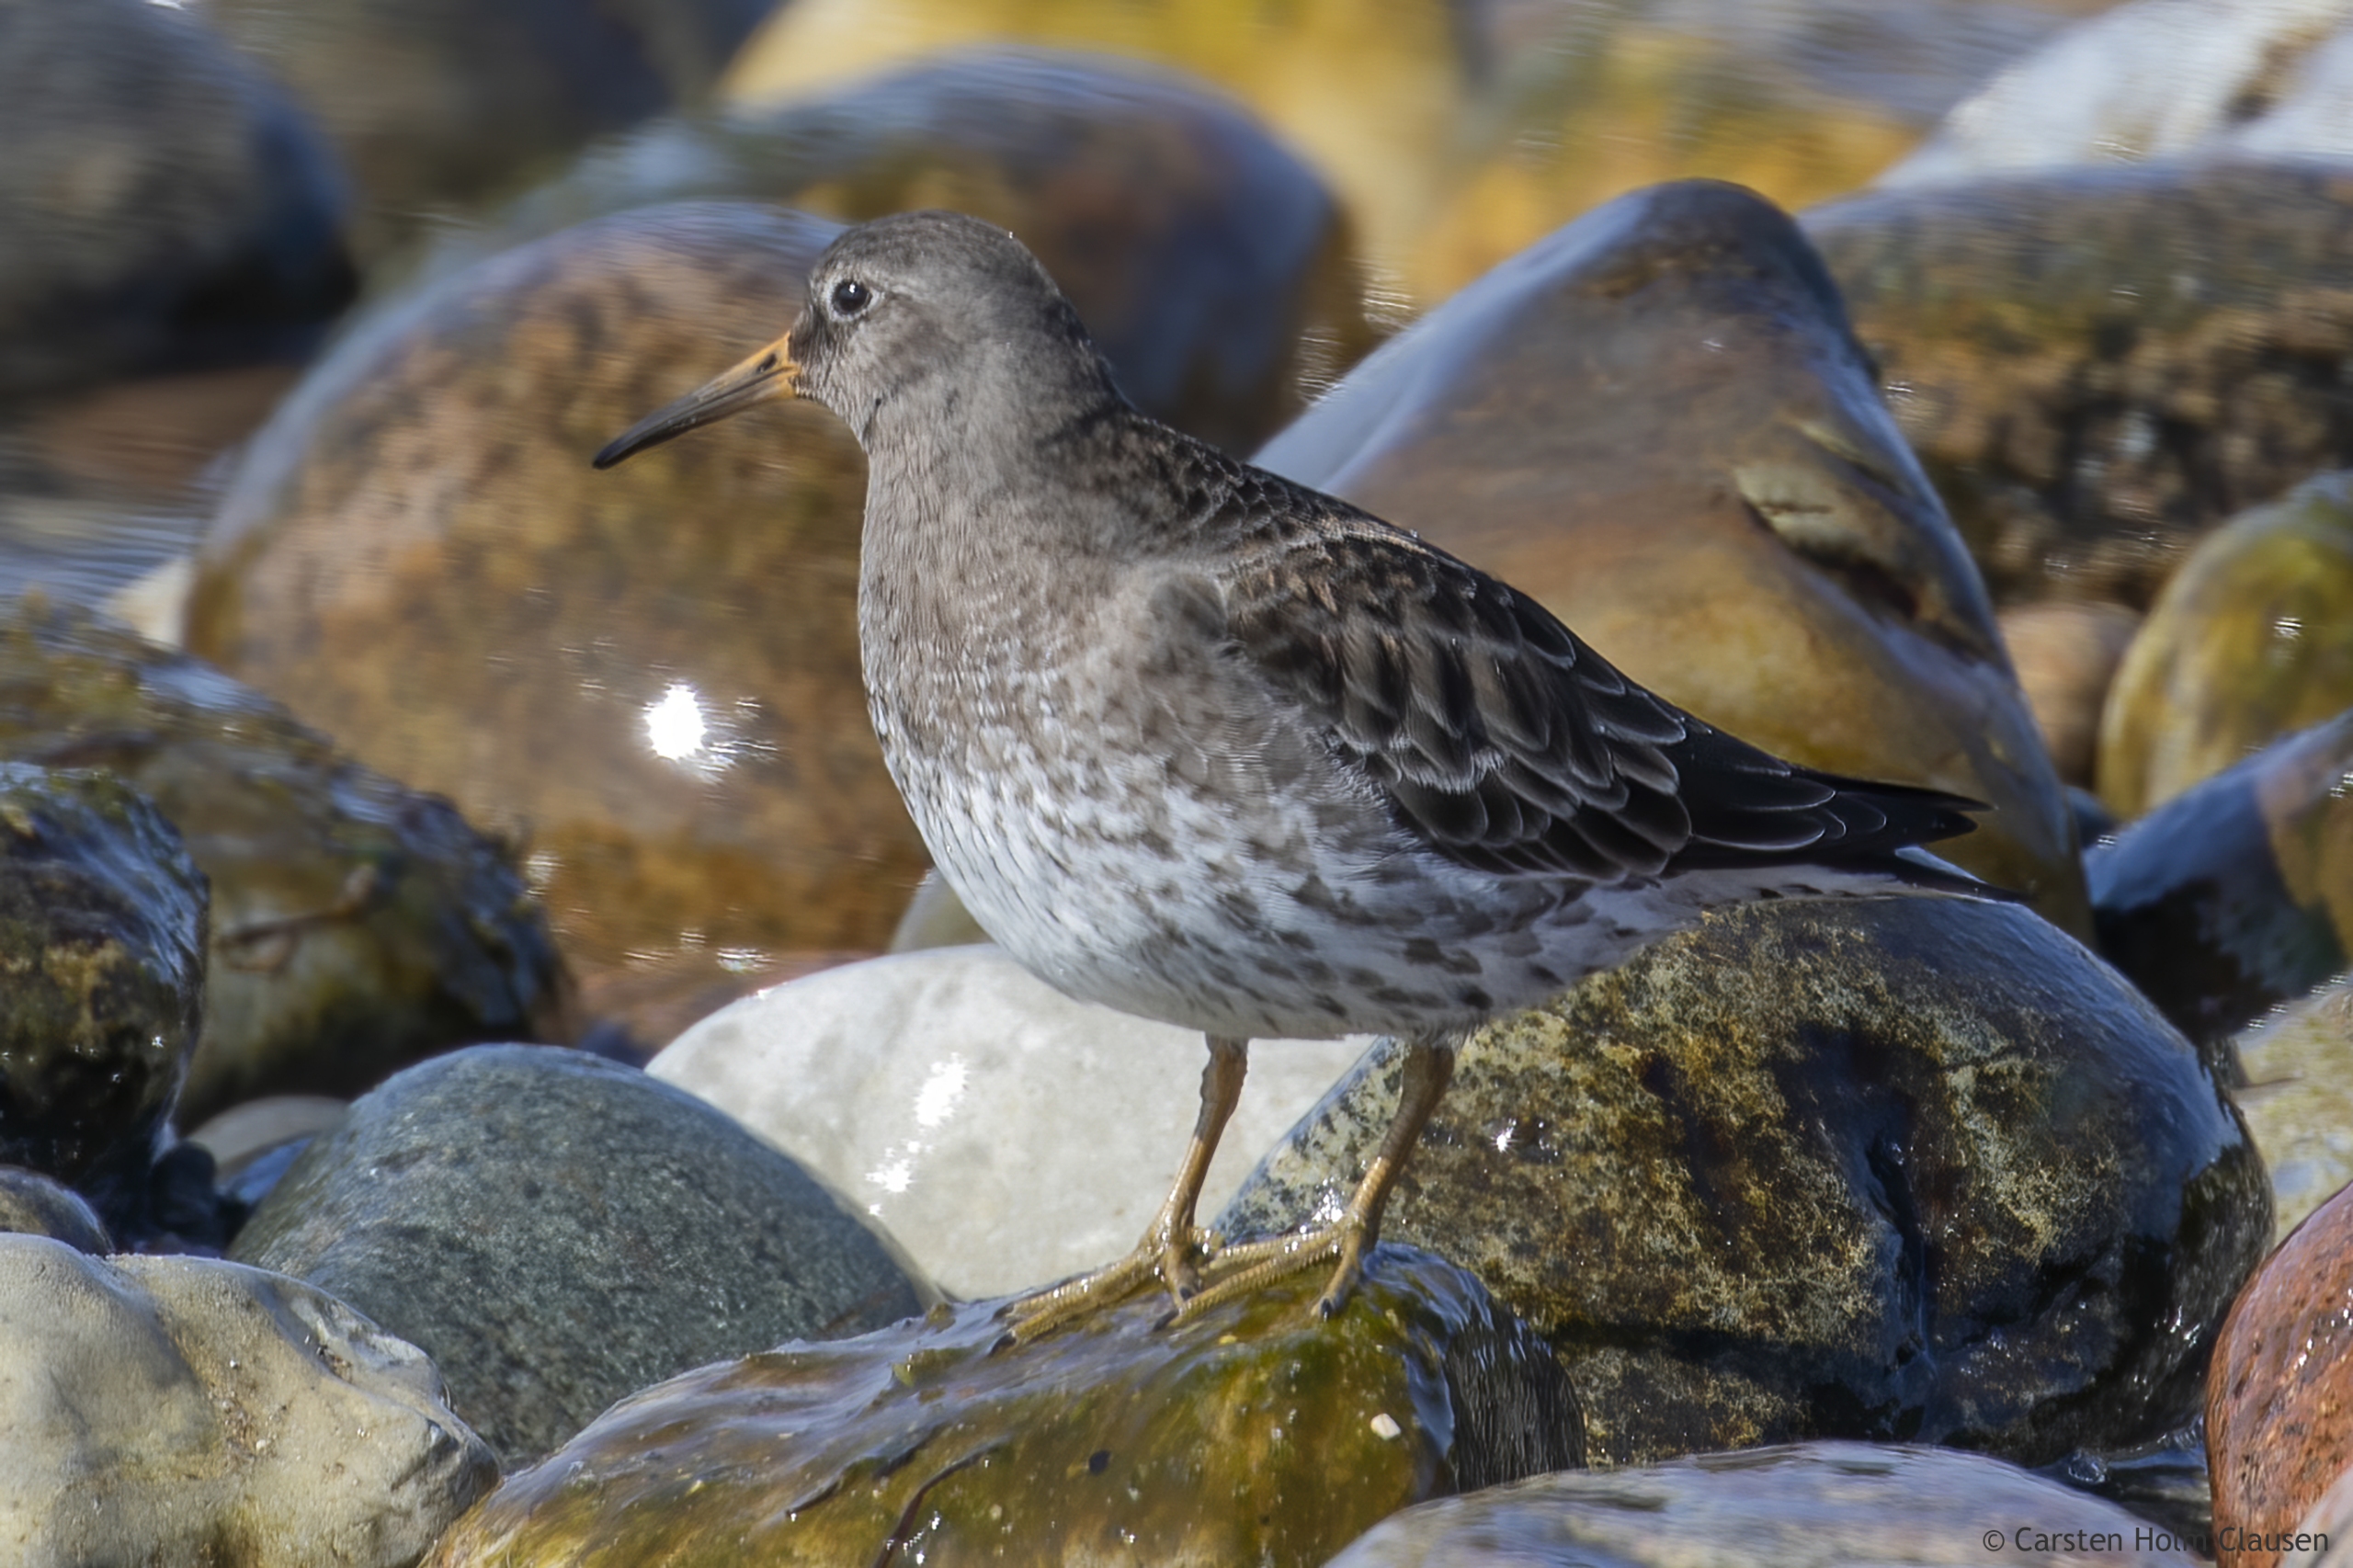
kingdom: Animalia
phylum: Chordata
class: Aves
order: Charadriiformes
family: Scolopacidae
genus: Calidris
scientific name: Calidris maritima
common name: Sortgrå ryle
